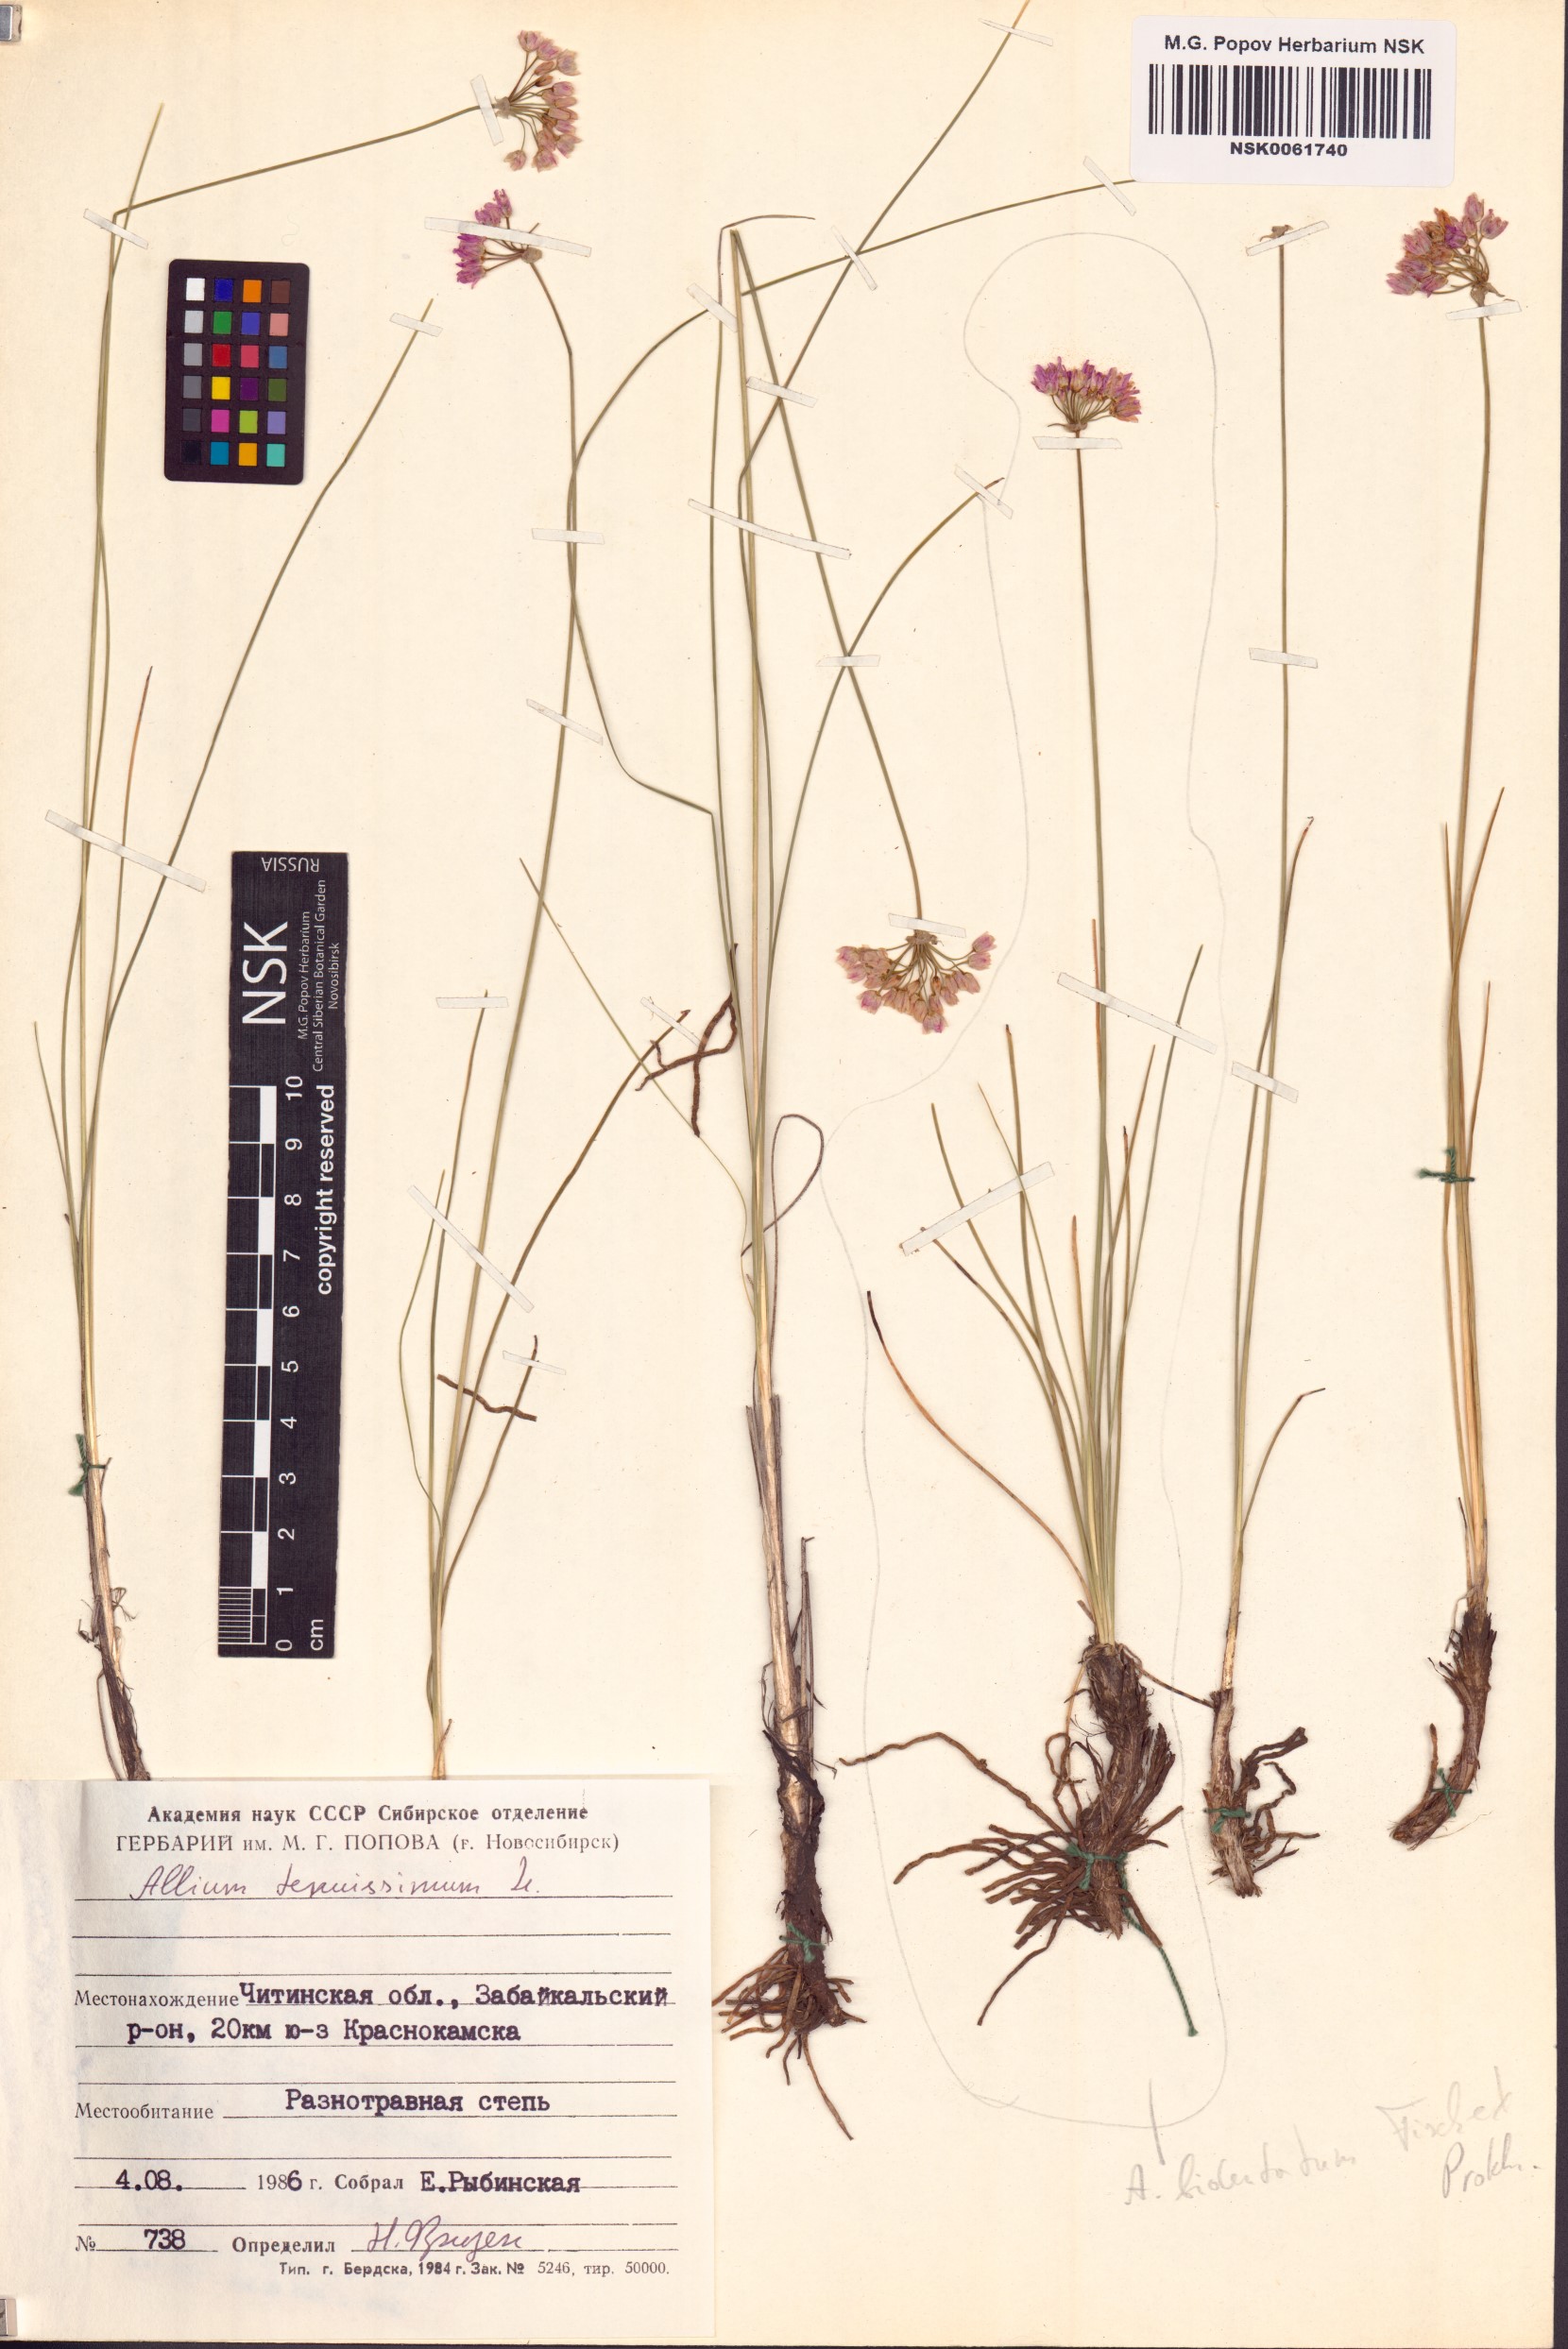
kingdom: Plantae
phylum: Tracheophyta
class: Liliopsida
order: Asparagales
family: Amaryllidaceae
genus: Allium
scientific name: Allium tenuissimum
